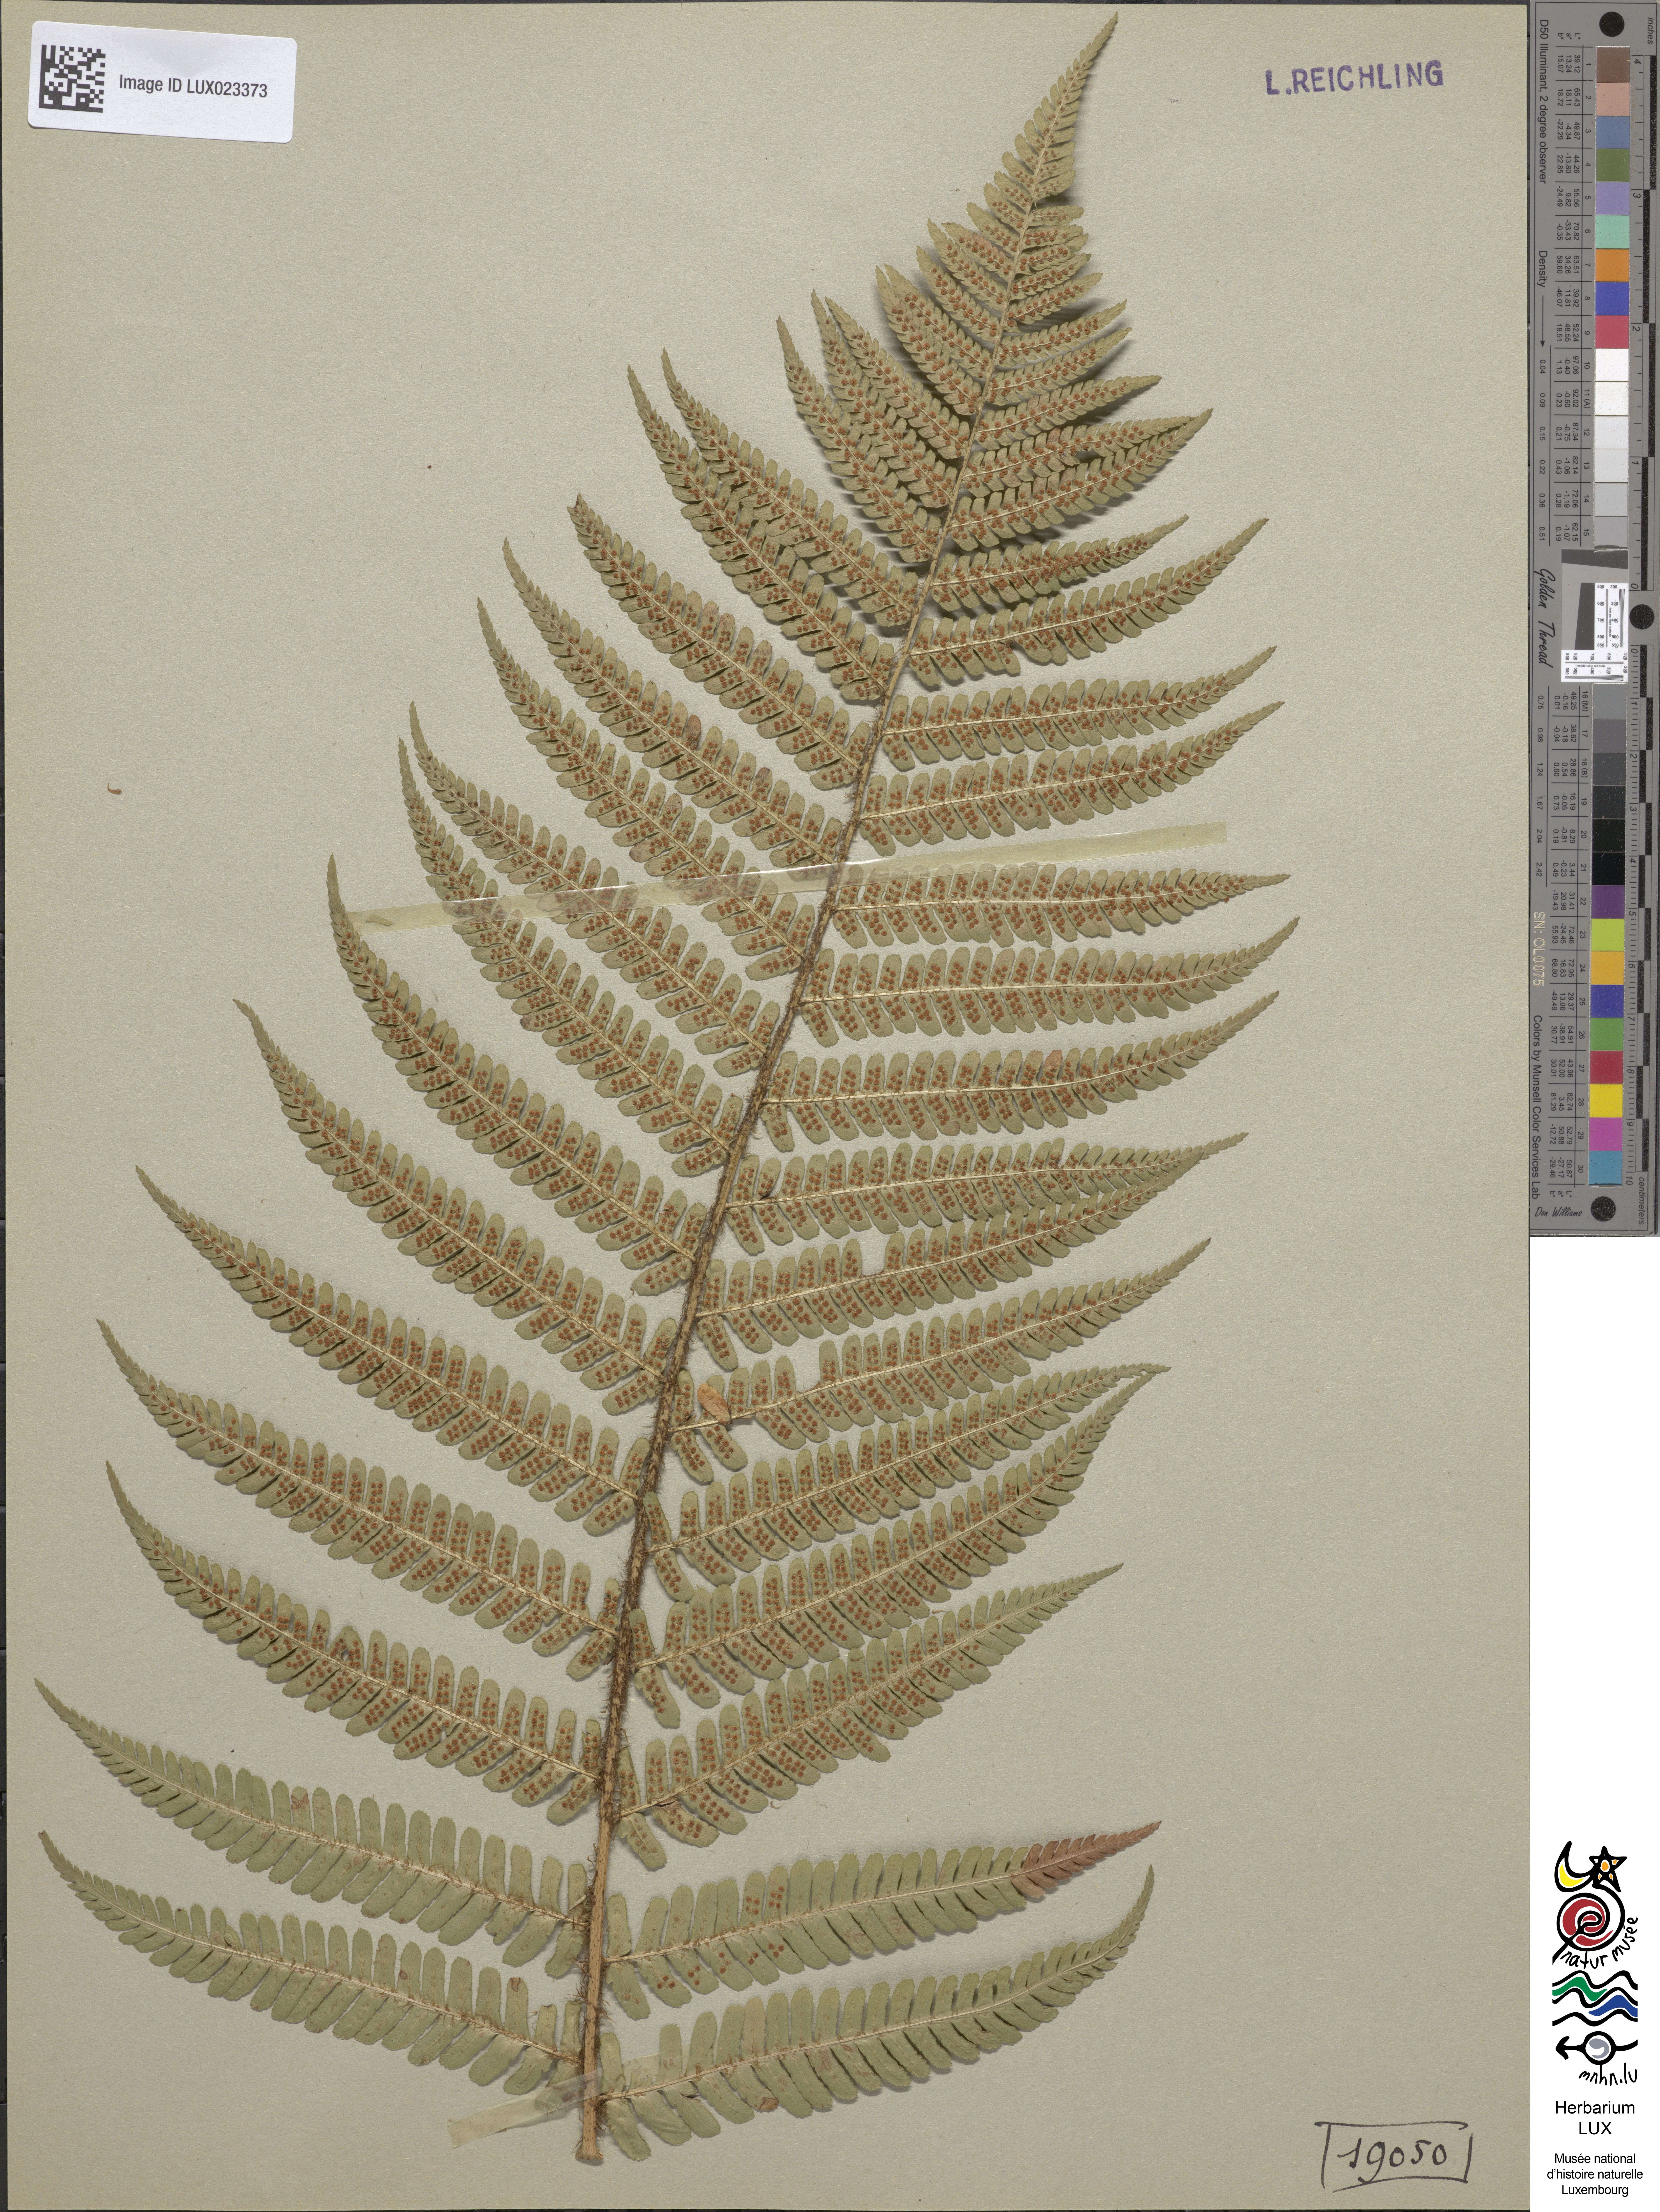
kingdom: Plantae
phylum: Tracheophyta
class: Polypodiopsida
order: Polypodiales
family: Dryopteridaceae
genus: Dryopteris
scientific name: Dryopteris borreri
